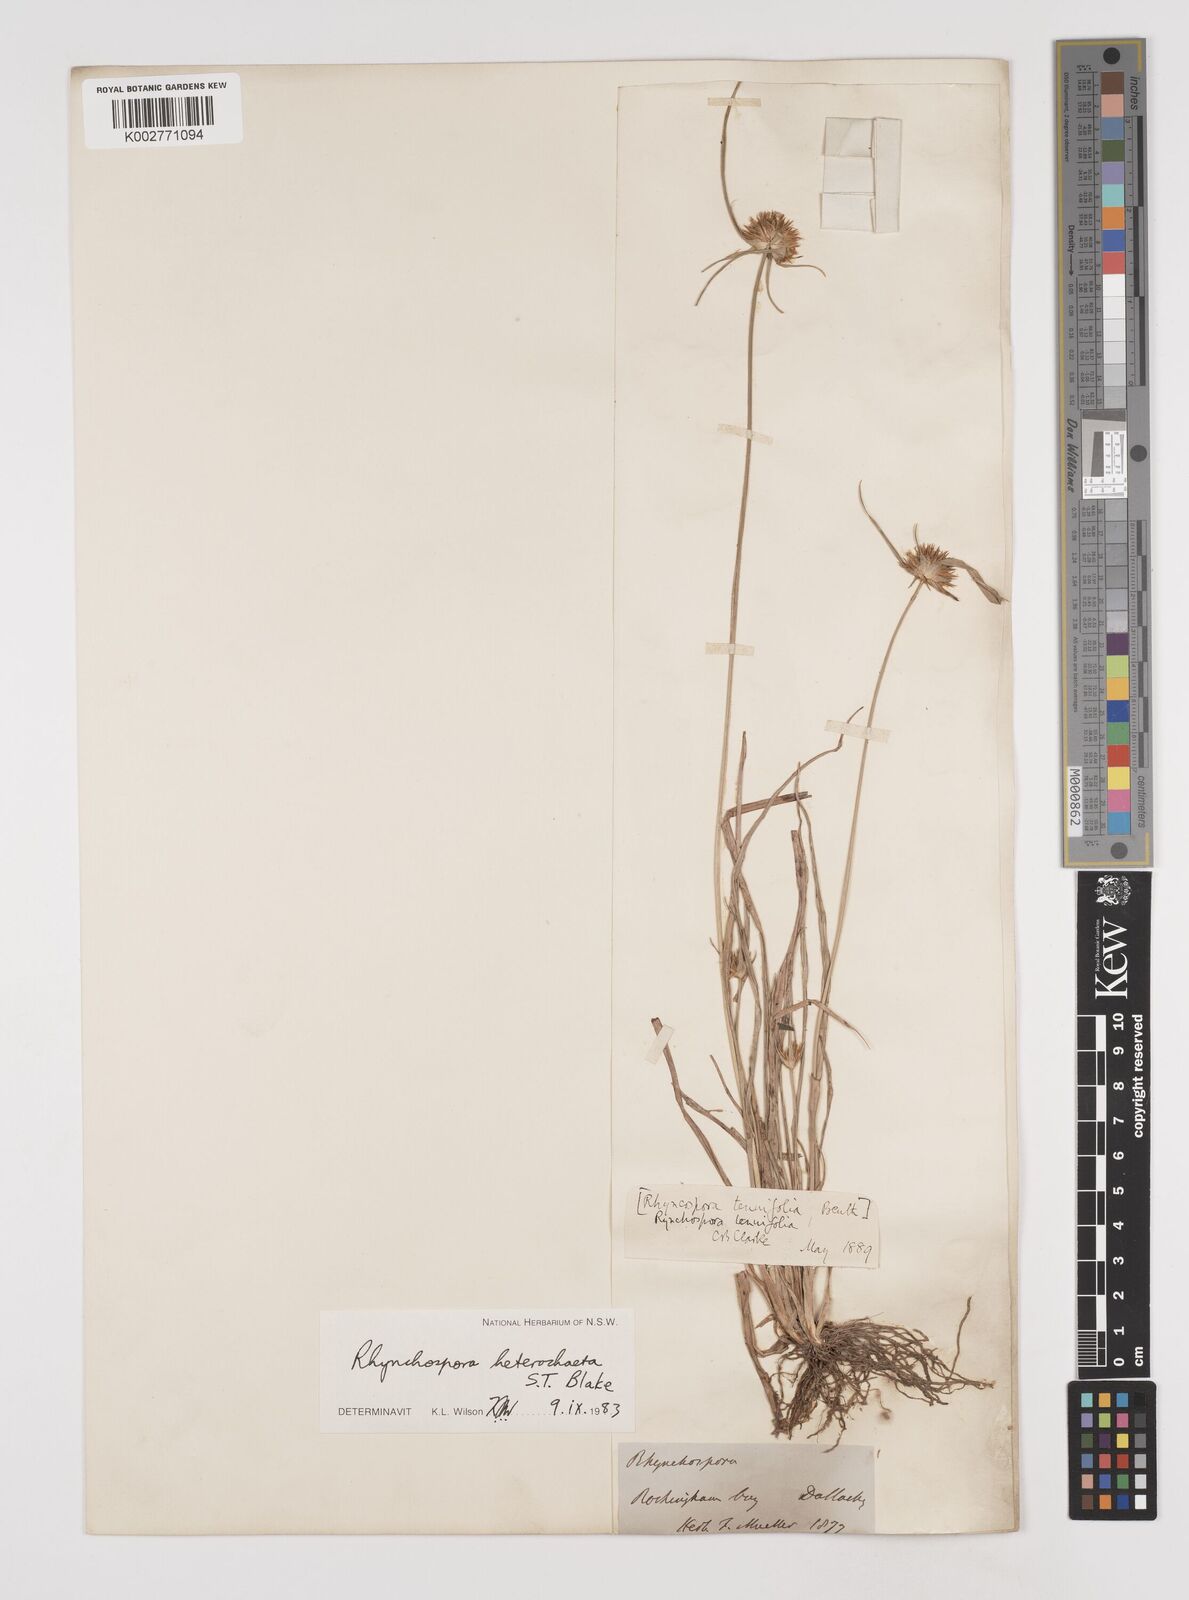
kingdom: Plantae
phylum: Tracheophyta
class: Liliopsida
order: Poales
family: Cyperaceae
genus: Rhynchospora
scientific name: Rhynchospora heterochaeta
